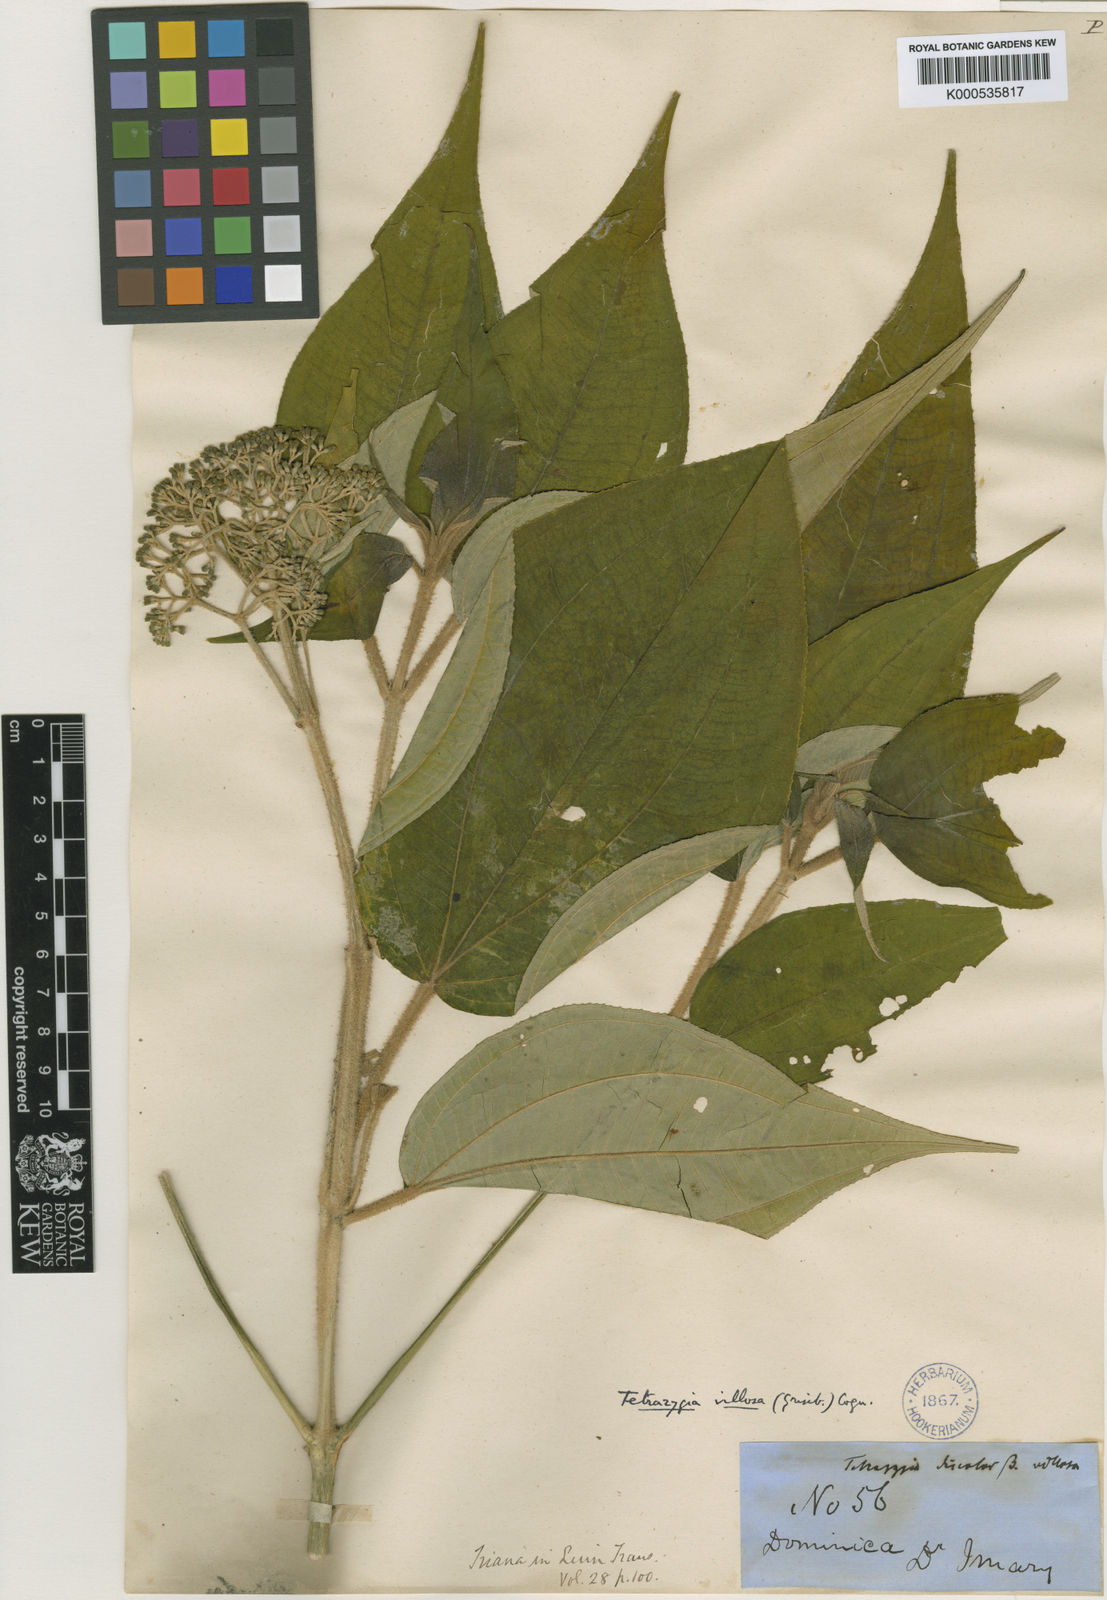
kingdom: Plantae
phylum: Tracheophyta
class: Magnoliopsida
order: Myrtales
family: Melastomataceae
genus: Miconia
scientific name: Miconia christophoriana
